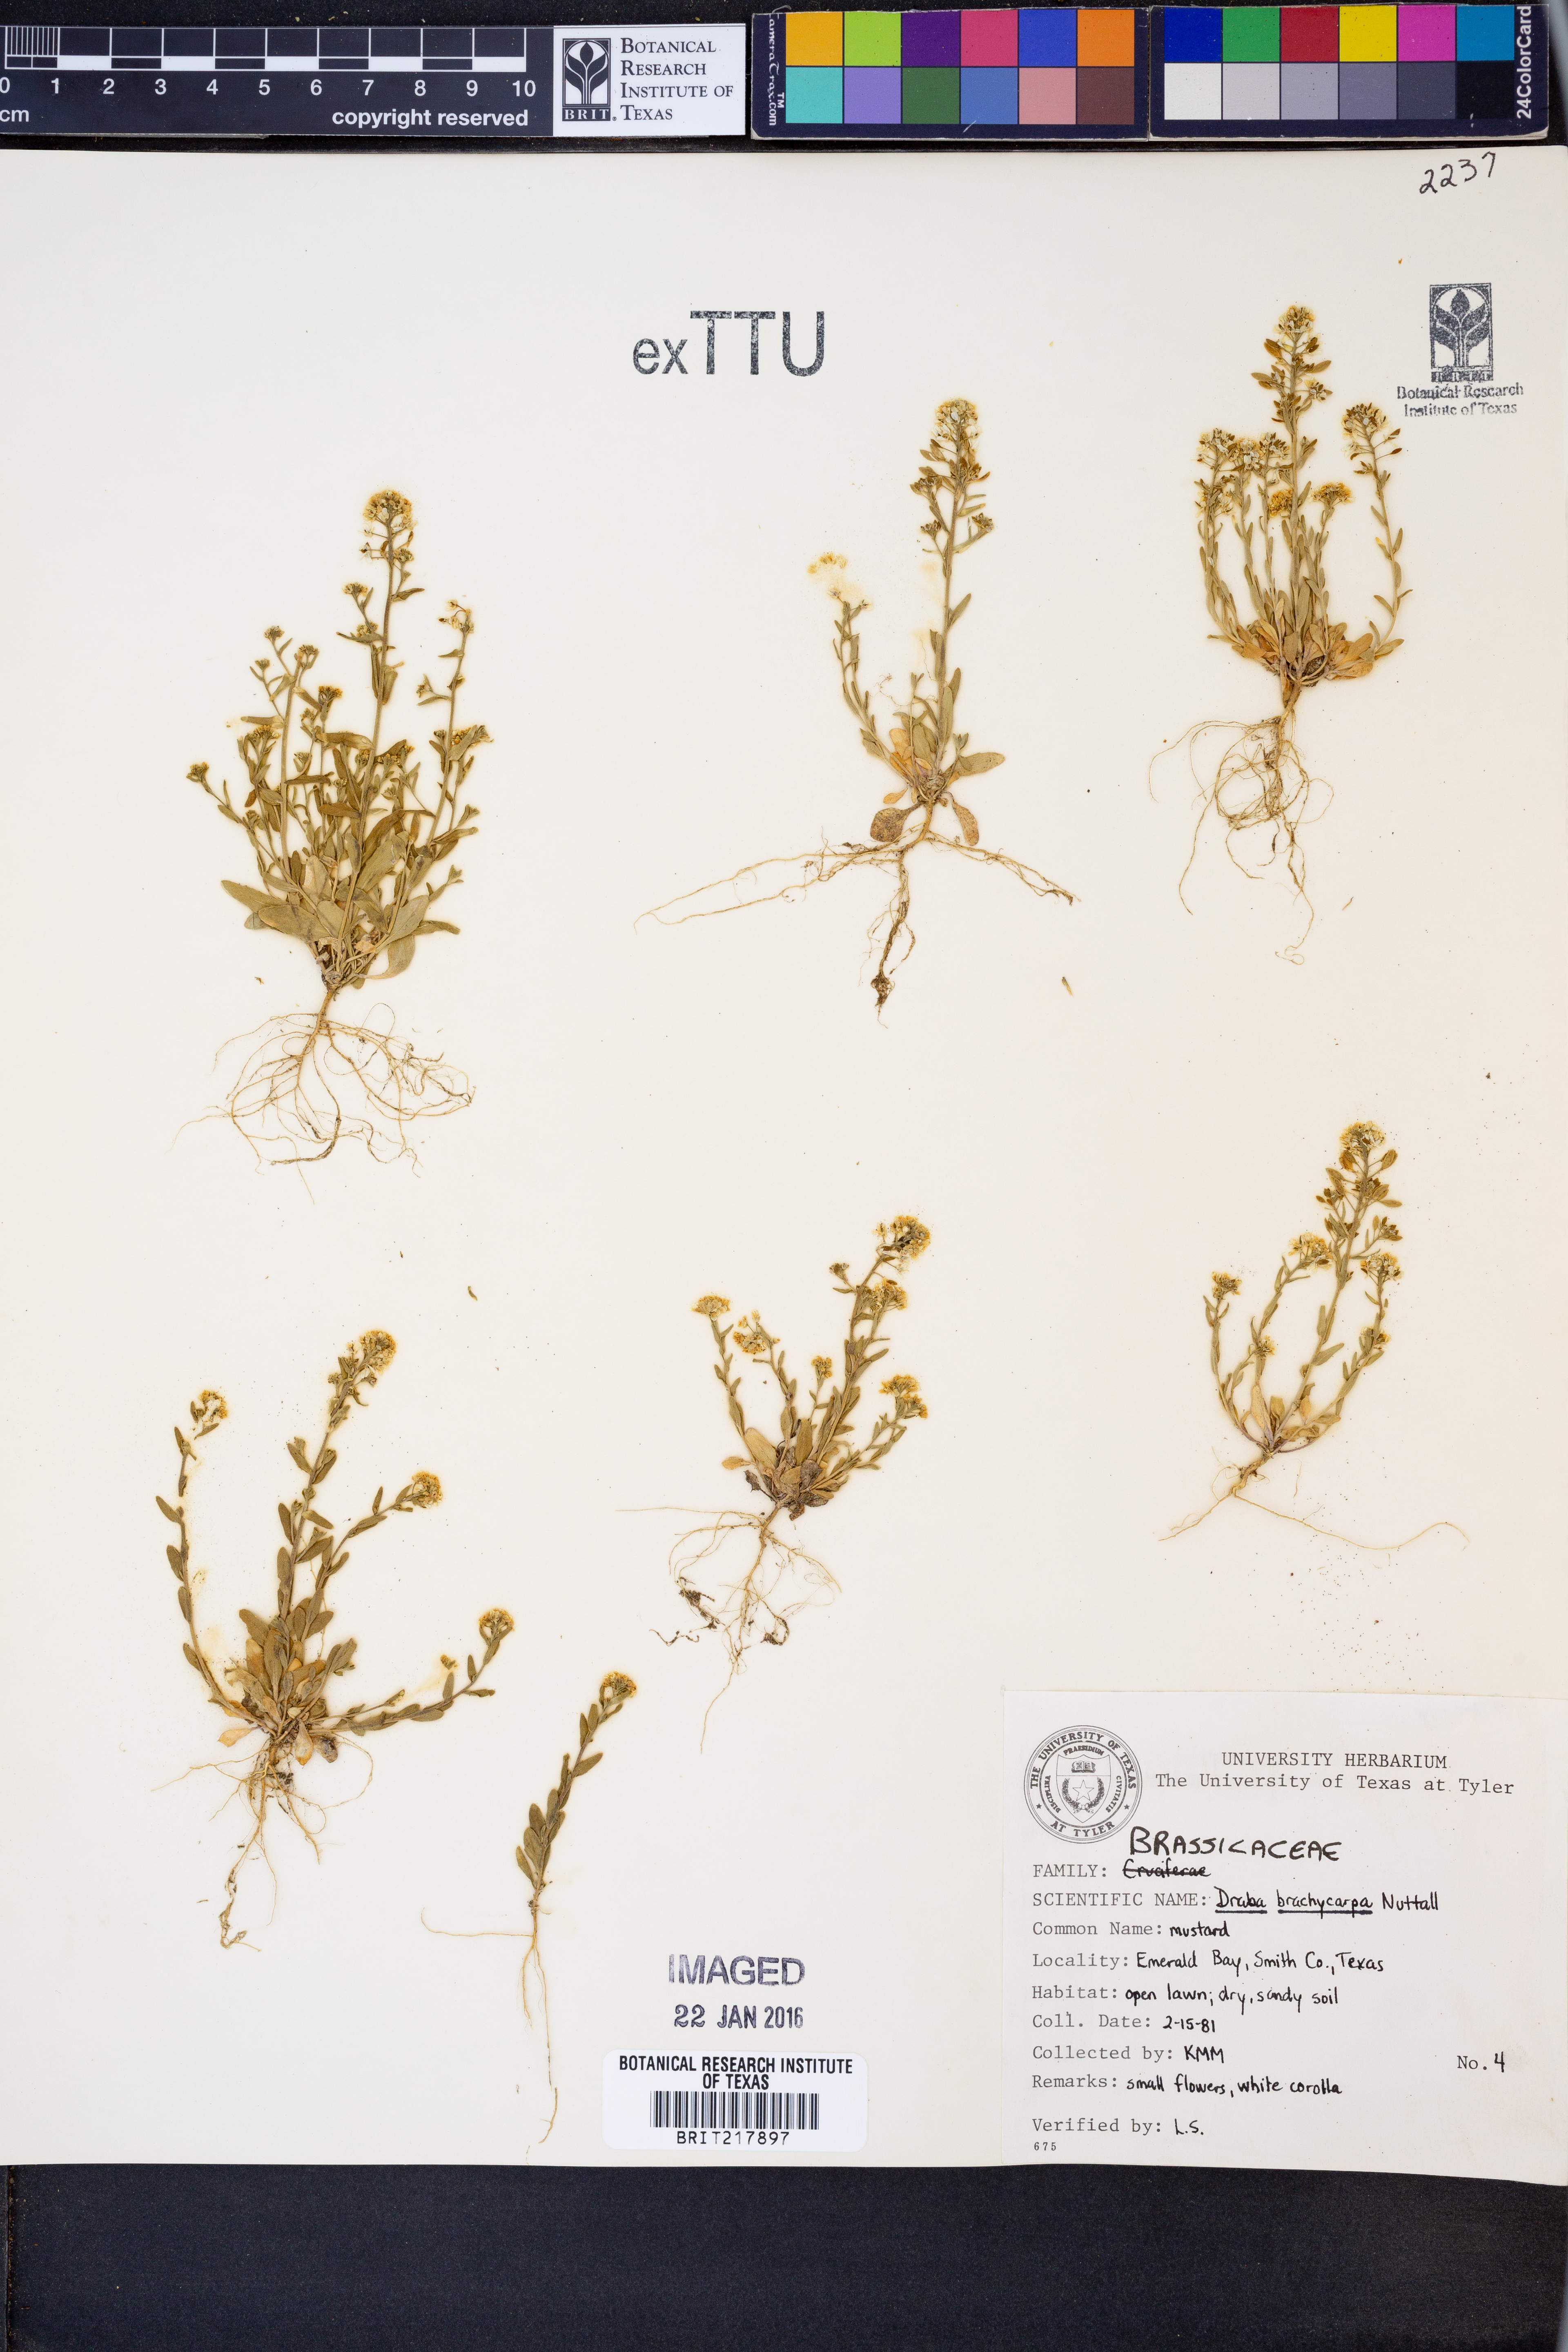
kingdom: Plantae
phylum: Tracheophyta
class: Magnoliopsida
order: Brassicales
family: Brassicaceae
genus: Abdra
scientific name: Abdra brachycarpa
